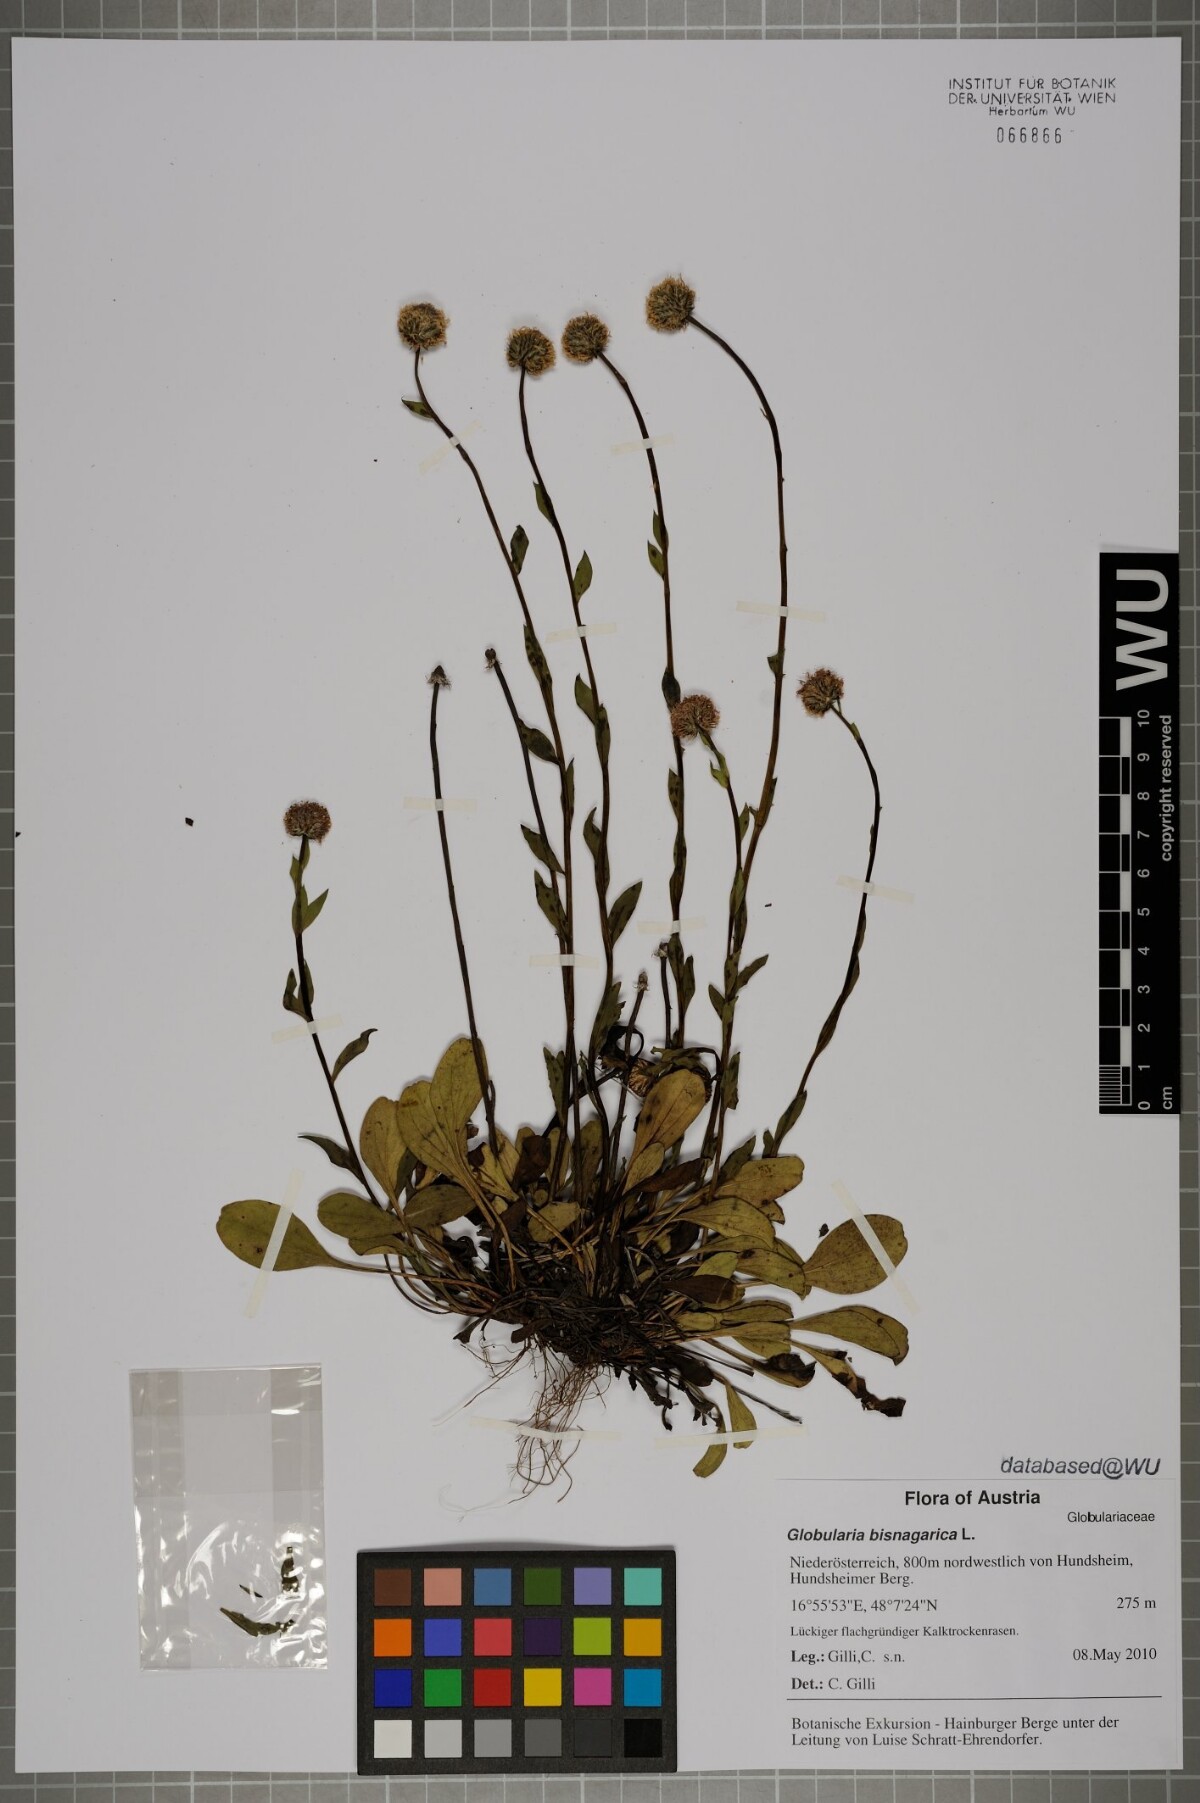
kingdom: Plantae
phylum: Tracheophyta
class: Magnoliopsida
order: Lamiales
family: Plantaginaceae
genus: Globularia
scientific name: Globularia bisnagarica
